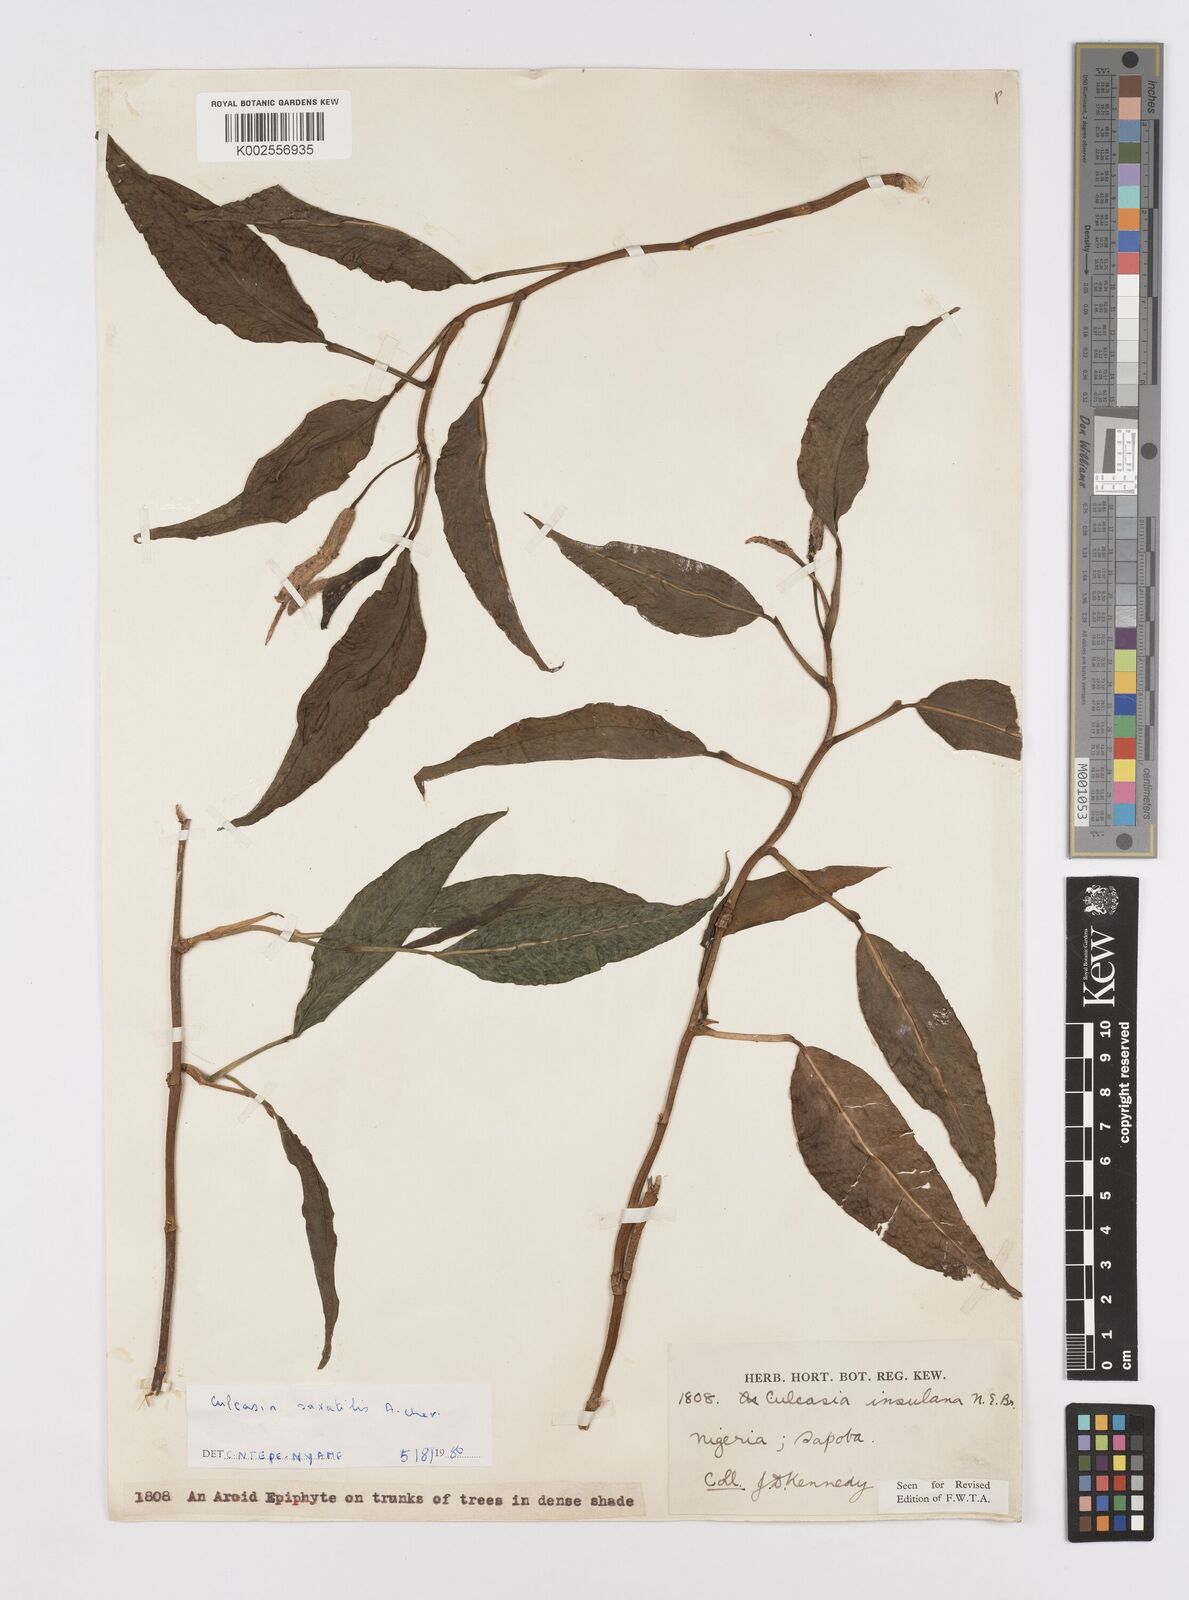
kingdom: Plantae
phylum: Tracheophyta
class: Liliopsida
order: Alismatales
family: Araceae
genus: Culcasia
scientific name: Culcasia scandens
